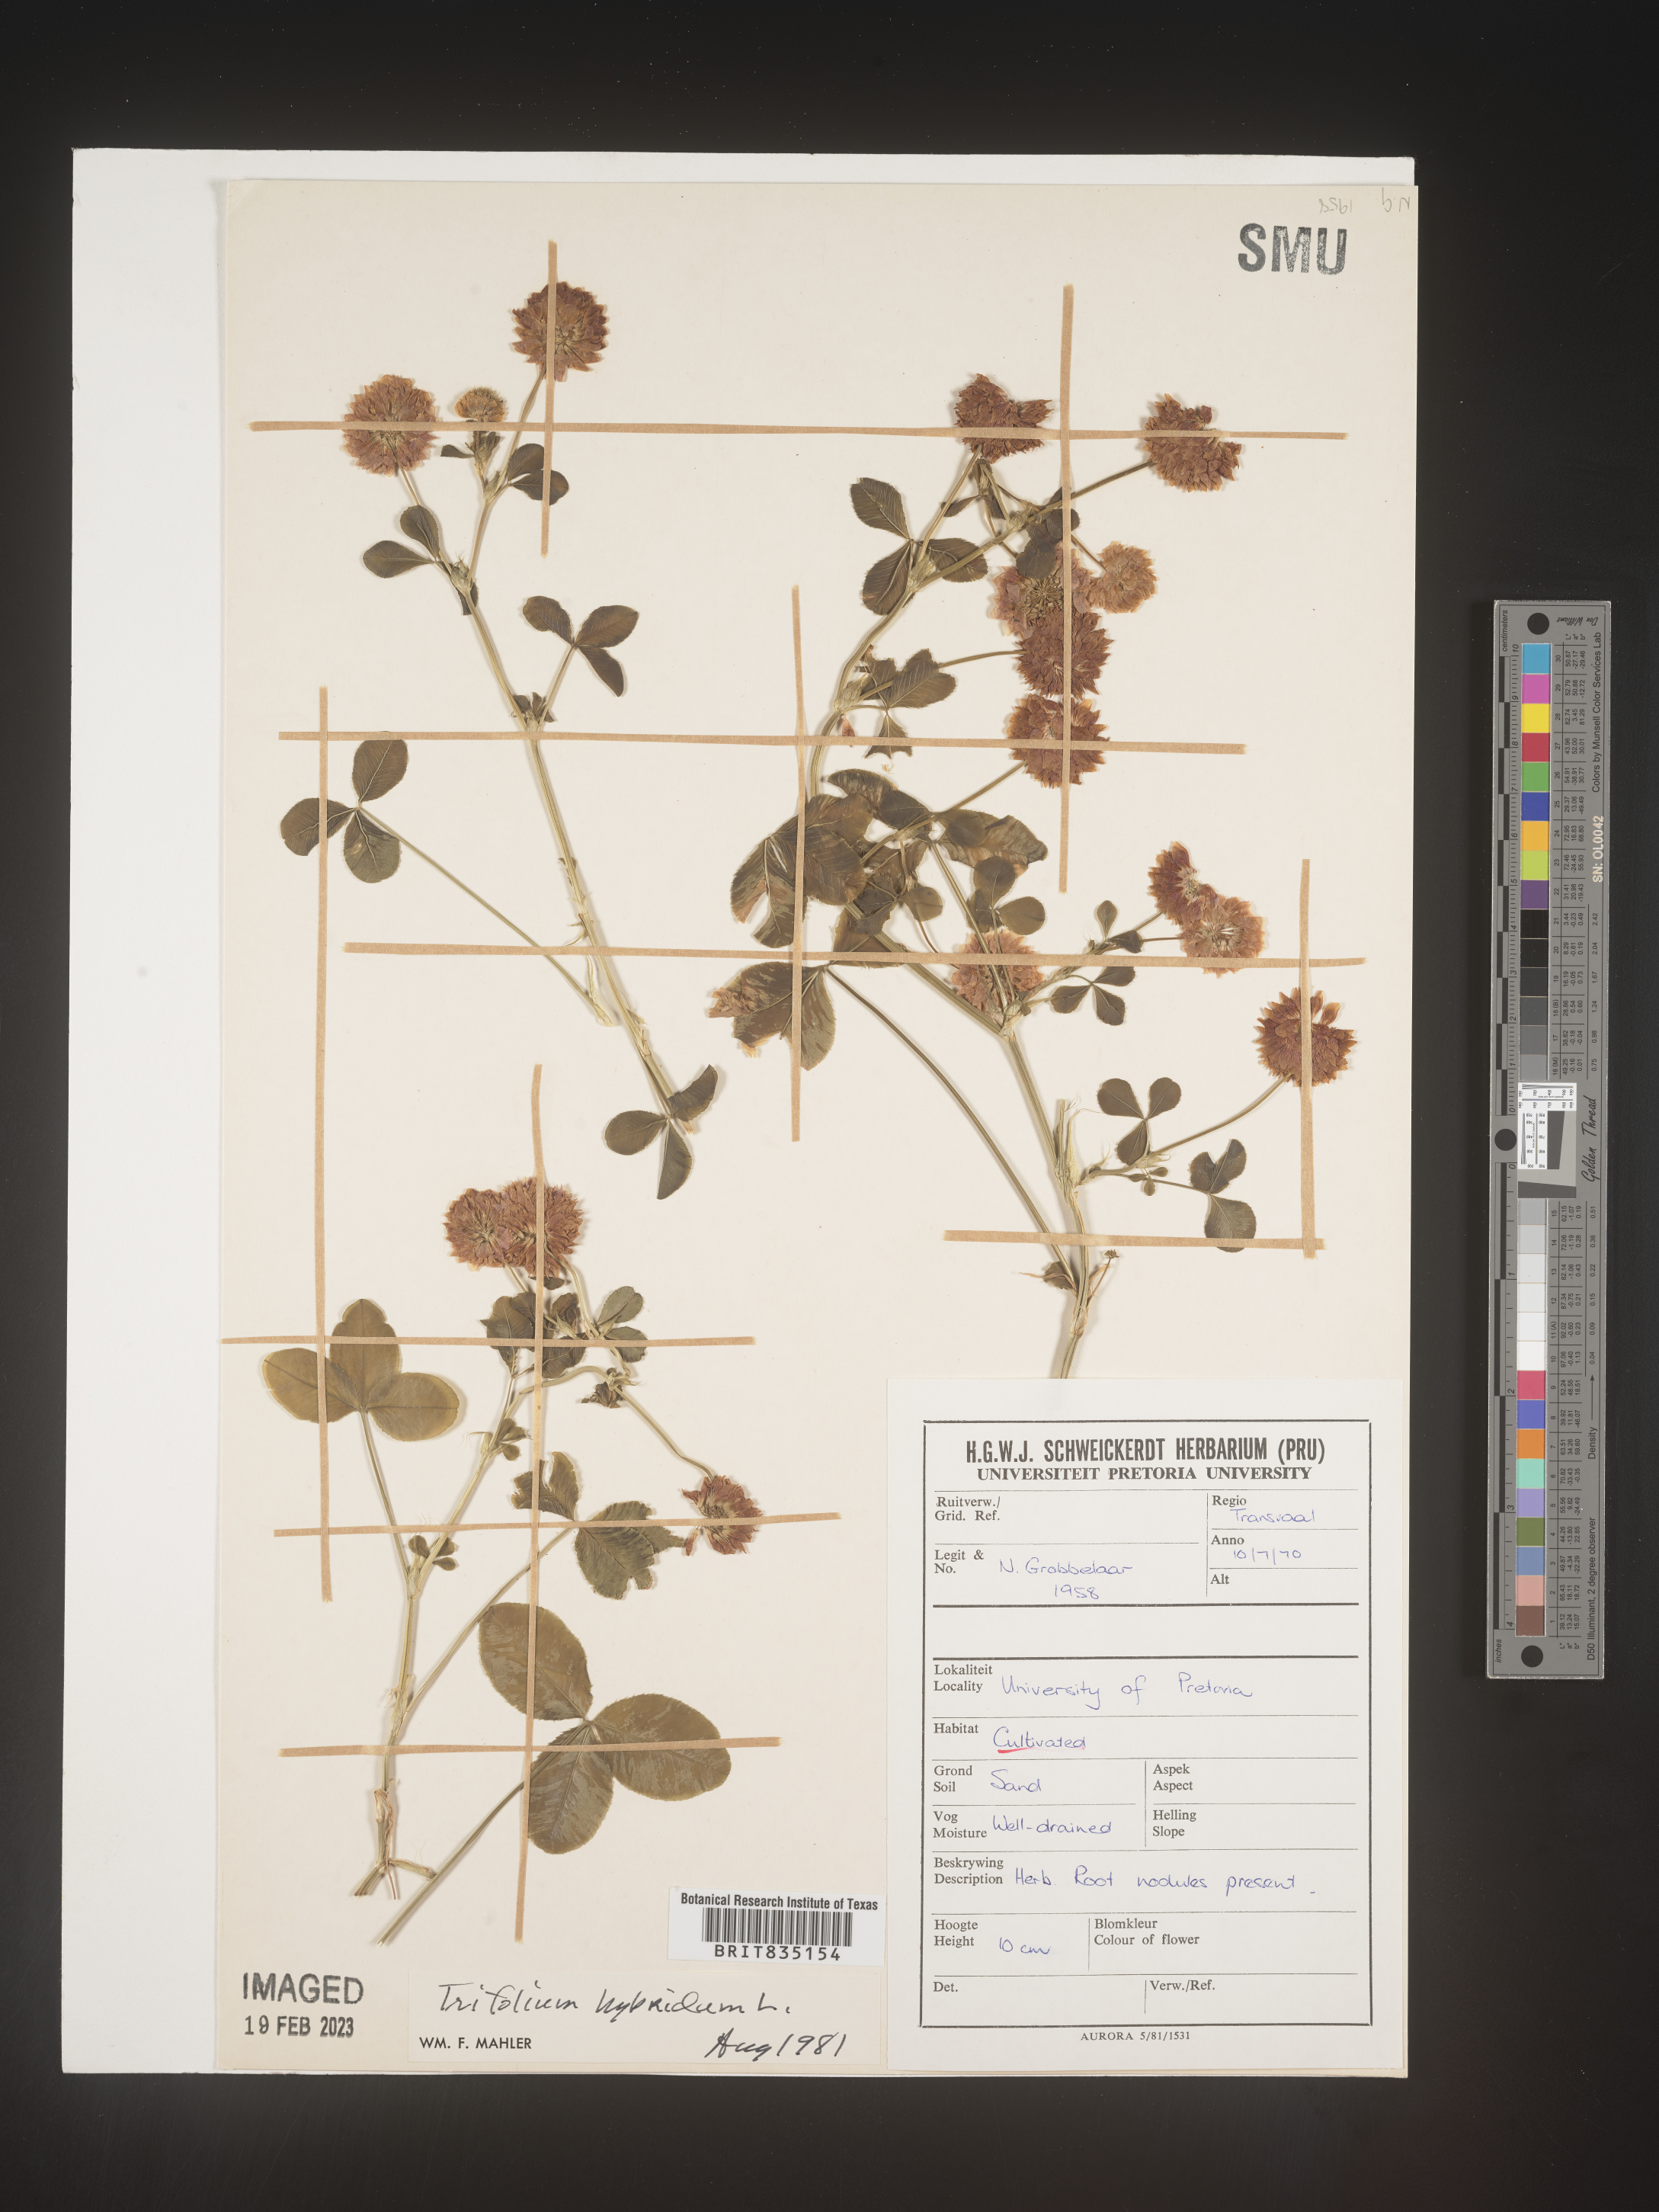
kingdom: Plantae
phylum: Tracheophyta
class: Magnoliopsida
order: Fabales
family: Fabaceae
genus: Trigonella
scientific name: Trigonella
